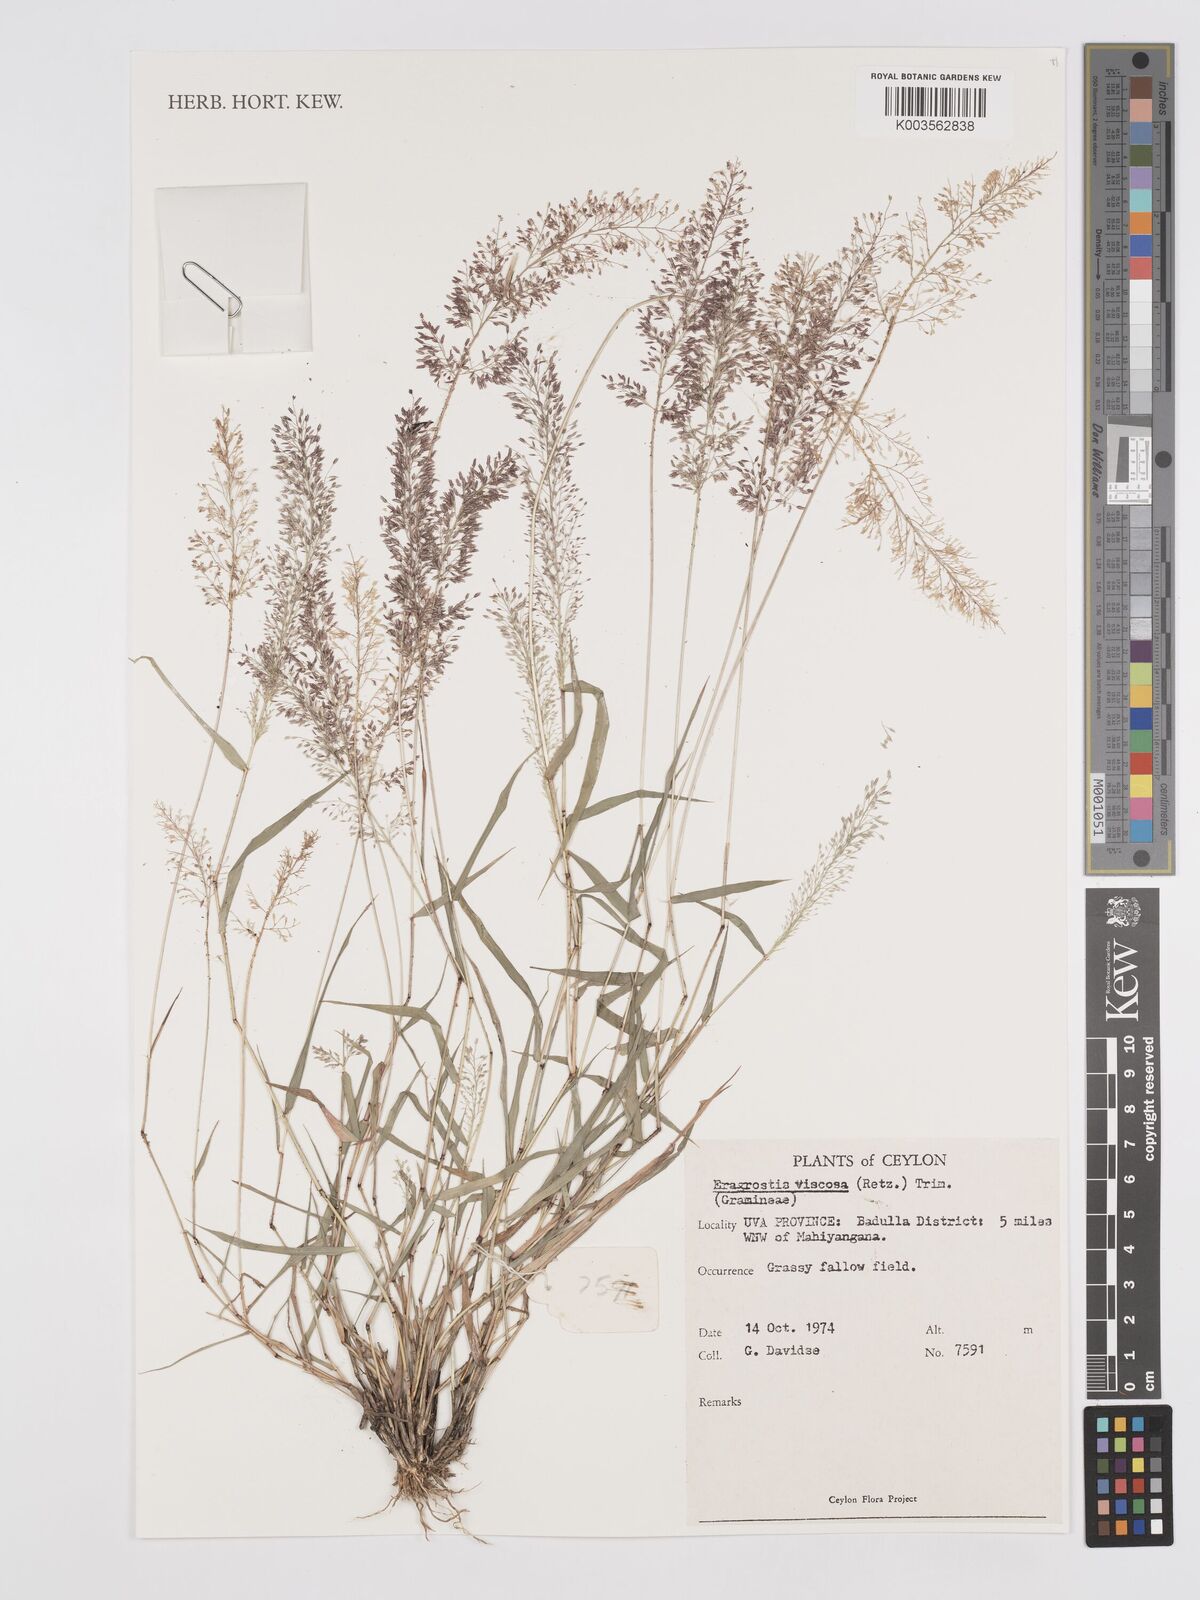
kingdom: Plantae
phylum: Tracheophyta
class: Liliopsida
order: Poales
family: Poaceae
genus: Eragrostis
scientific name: Eragrostis viscosa
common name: Sticky love grass
